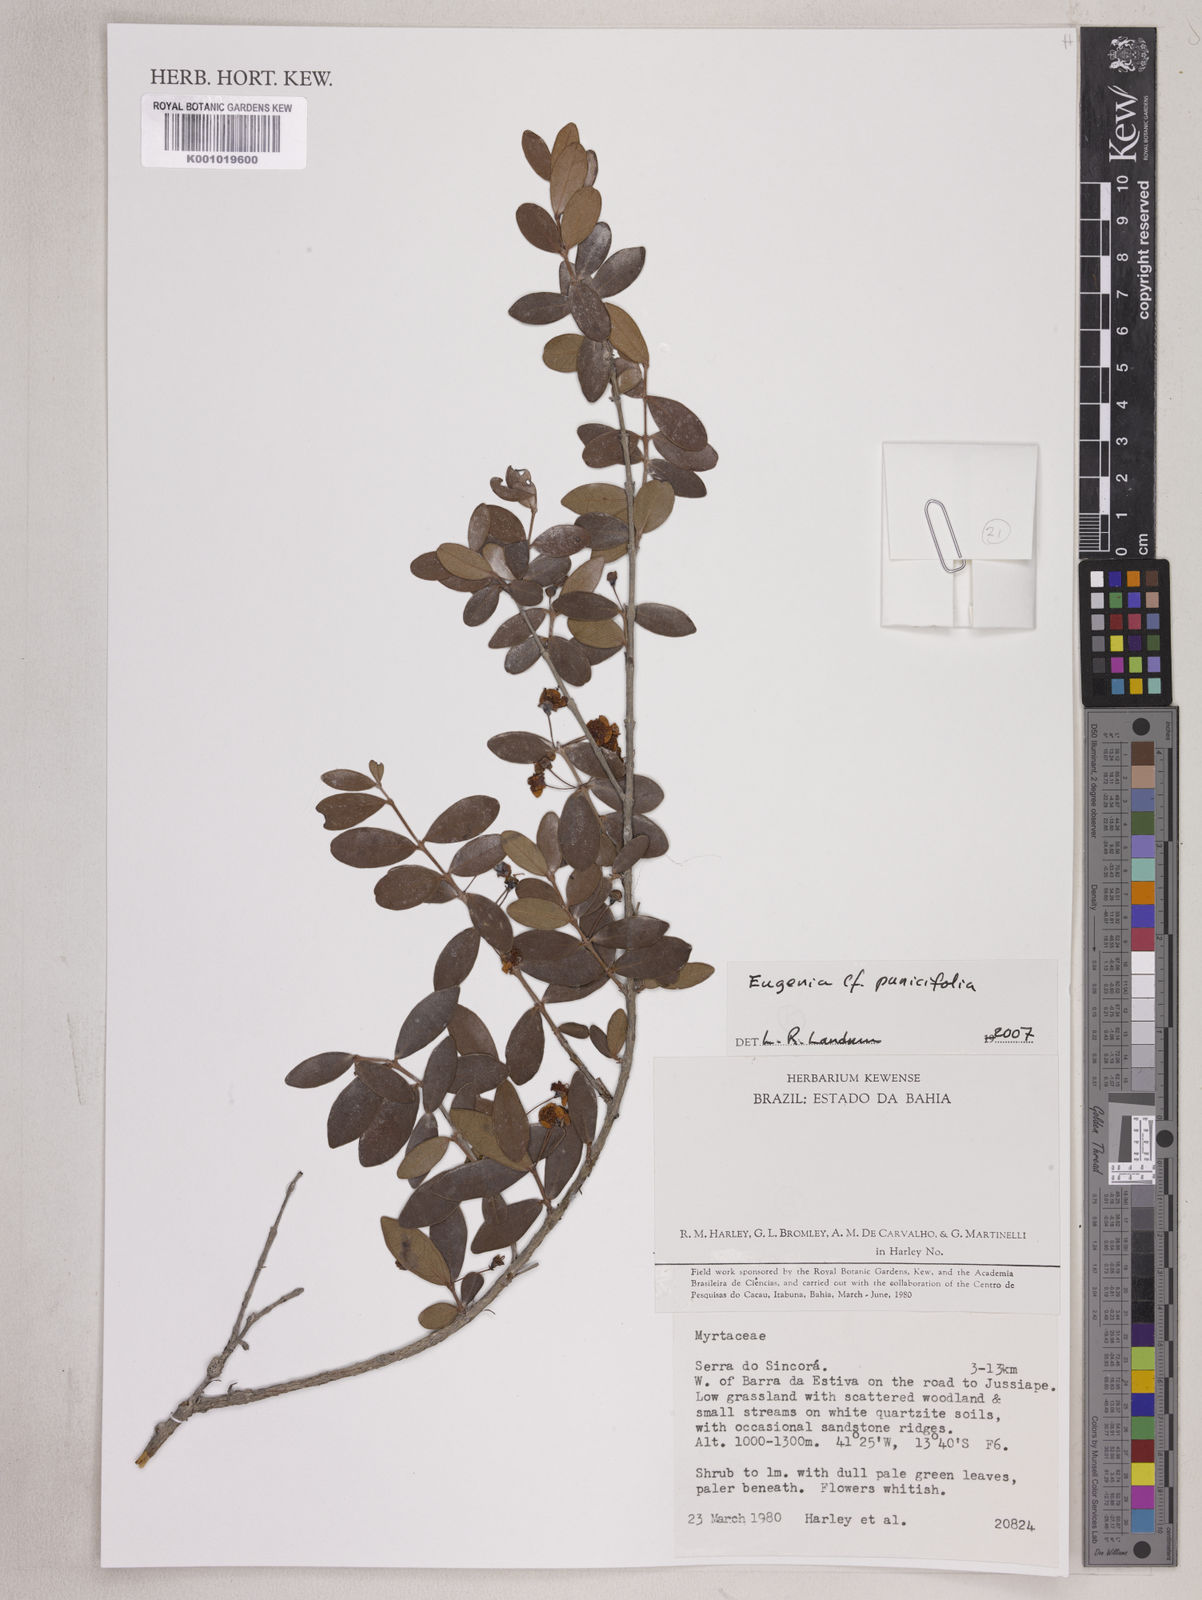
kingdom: Plantae
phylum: Tracheophyta
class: Magnoliopsida
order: Myrtales
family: Myrtaceae
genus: Eugenia
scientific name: Eugenia punicifolia
